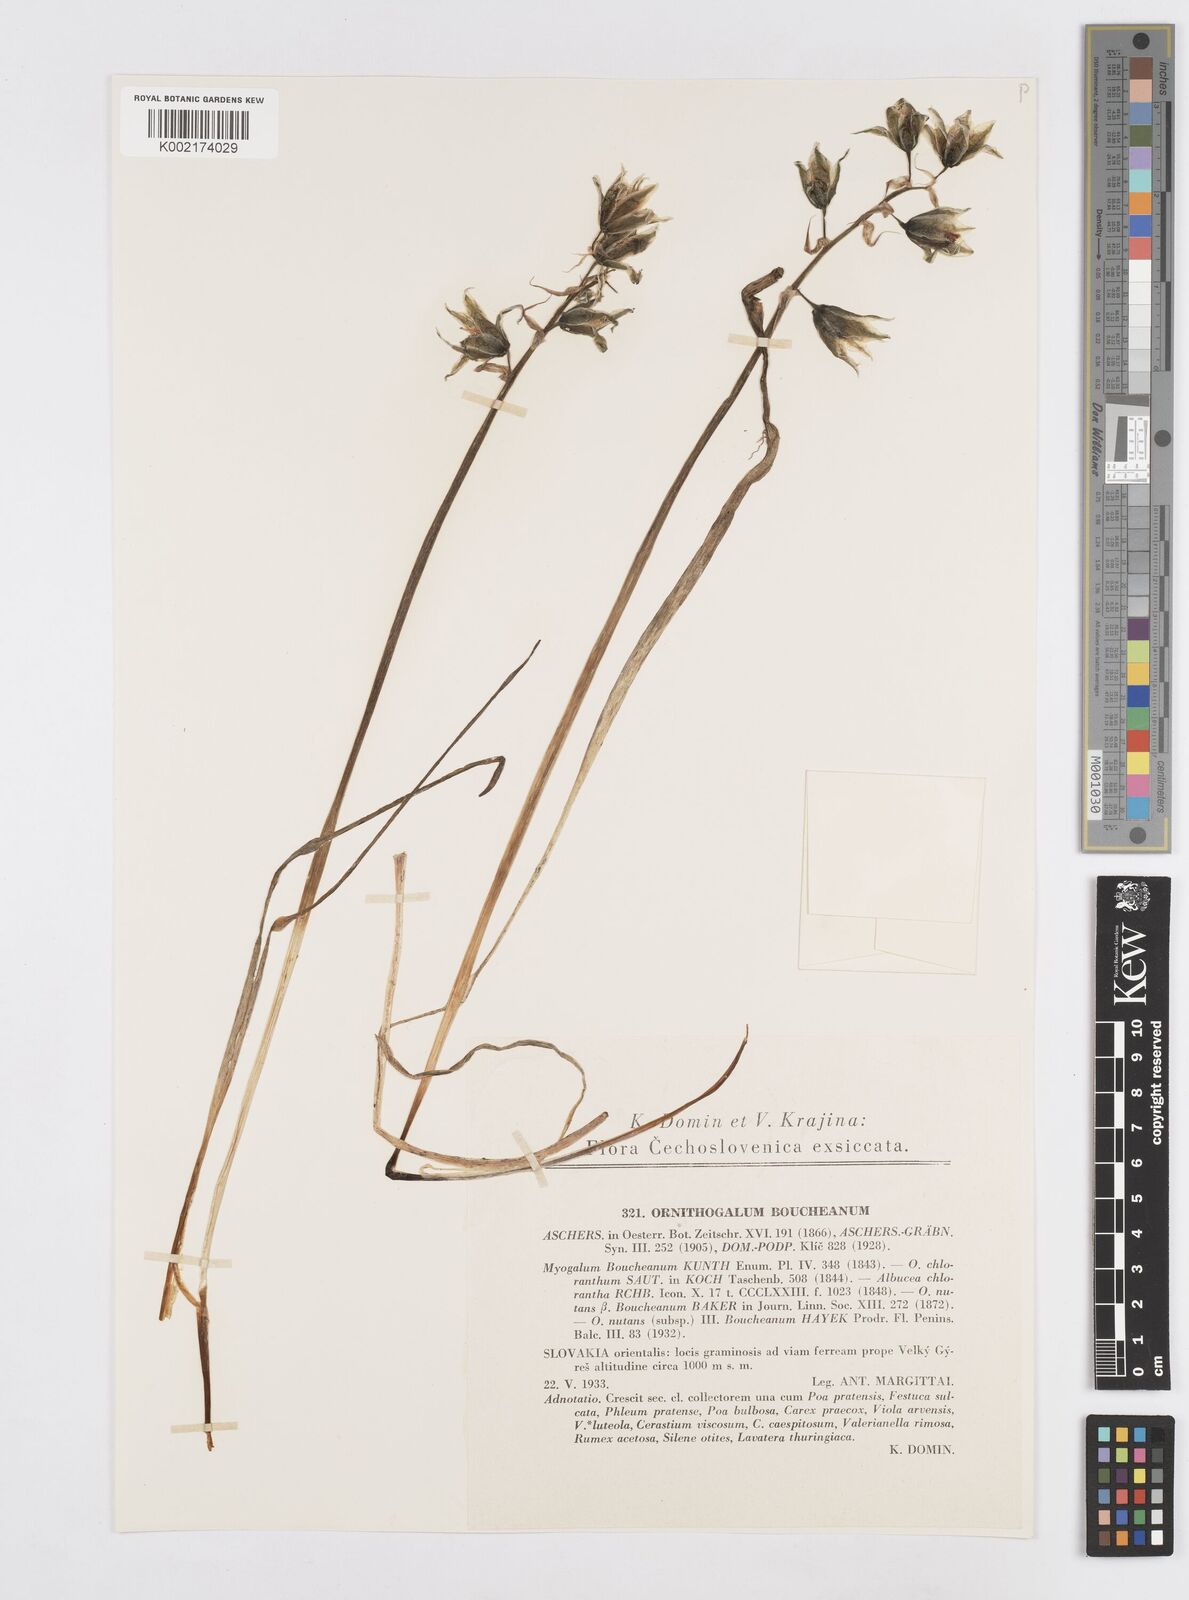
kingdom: Plantae
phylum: Tracheophyta
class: Liliopsida
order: Asparagales
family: Asparagaceae
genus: Ornithogalum
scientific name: Ornithogalum boucheanum
